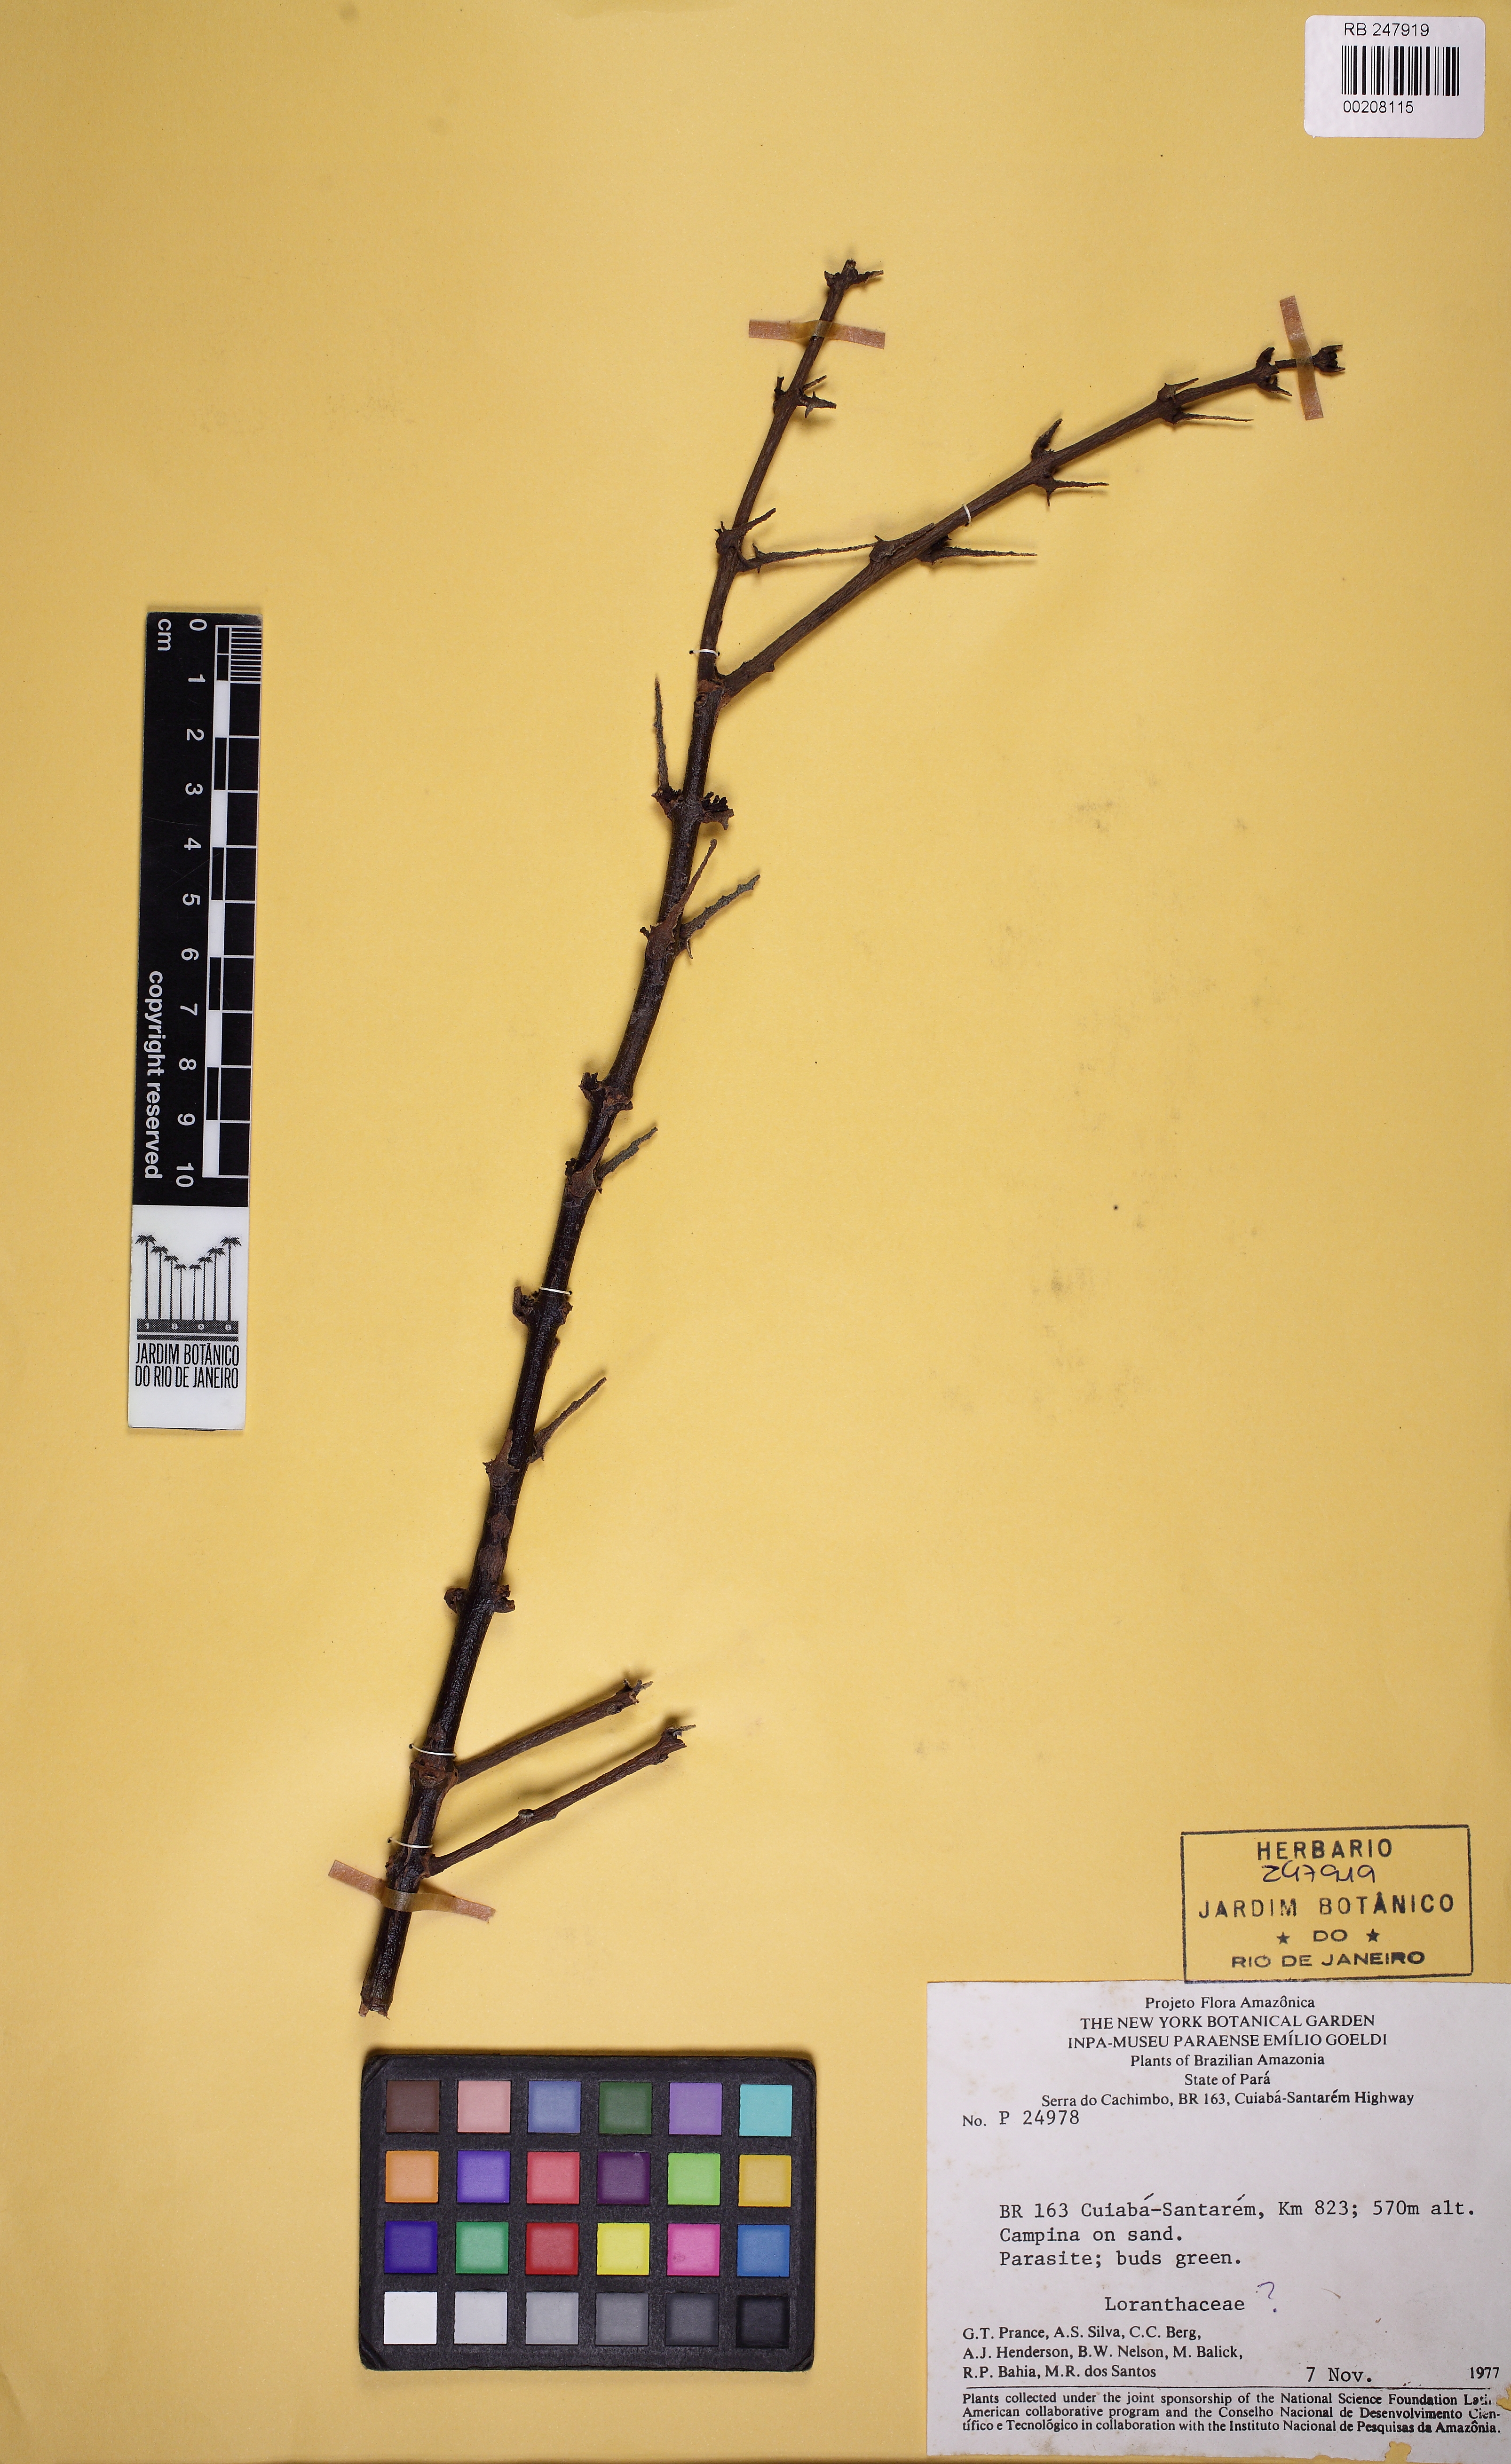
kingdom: Plantae
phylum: Tracheophyta
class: Magnoliopsida
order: Santalales
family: Loranthaceae
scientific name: Loranthaceae
